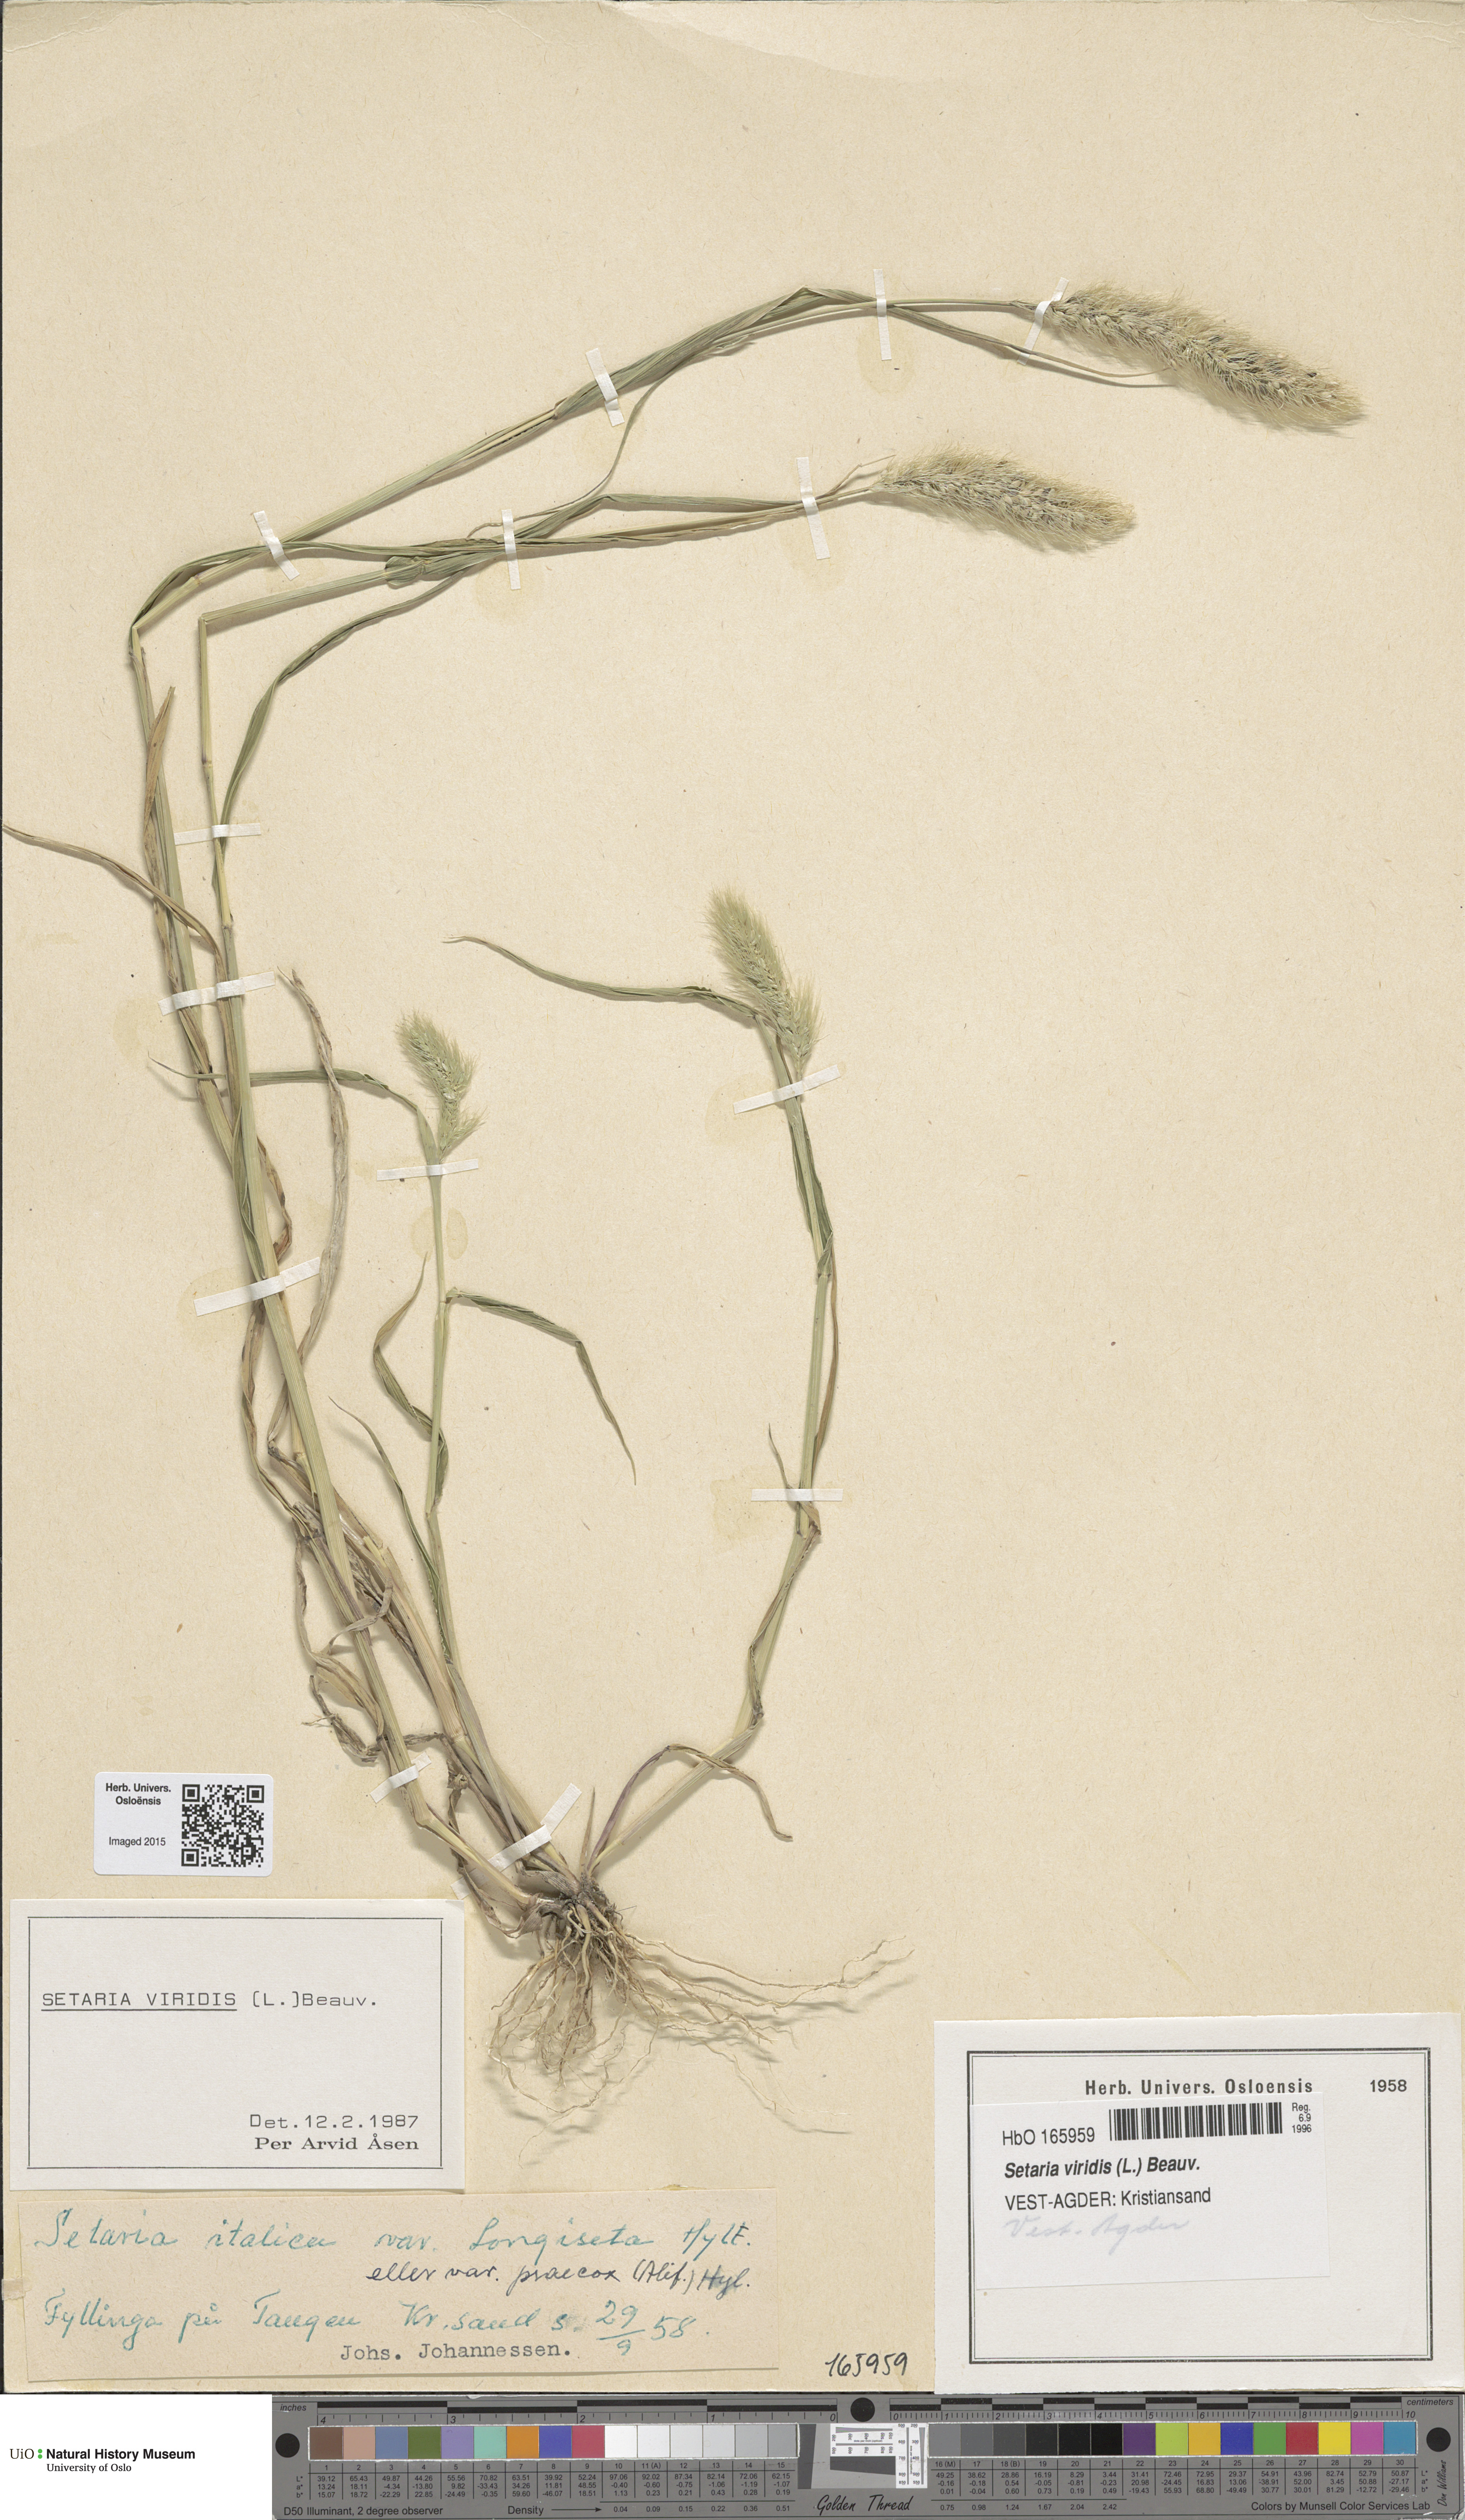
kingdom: Plantae
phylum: Tracheophyta
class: Liliopsida
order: Poales
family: Poaceae
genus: Setaria
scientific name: Setaria viridis
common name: Green bristlegrass
